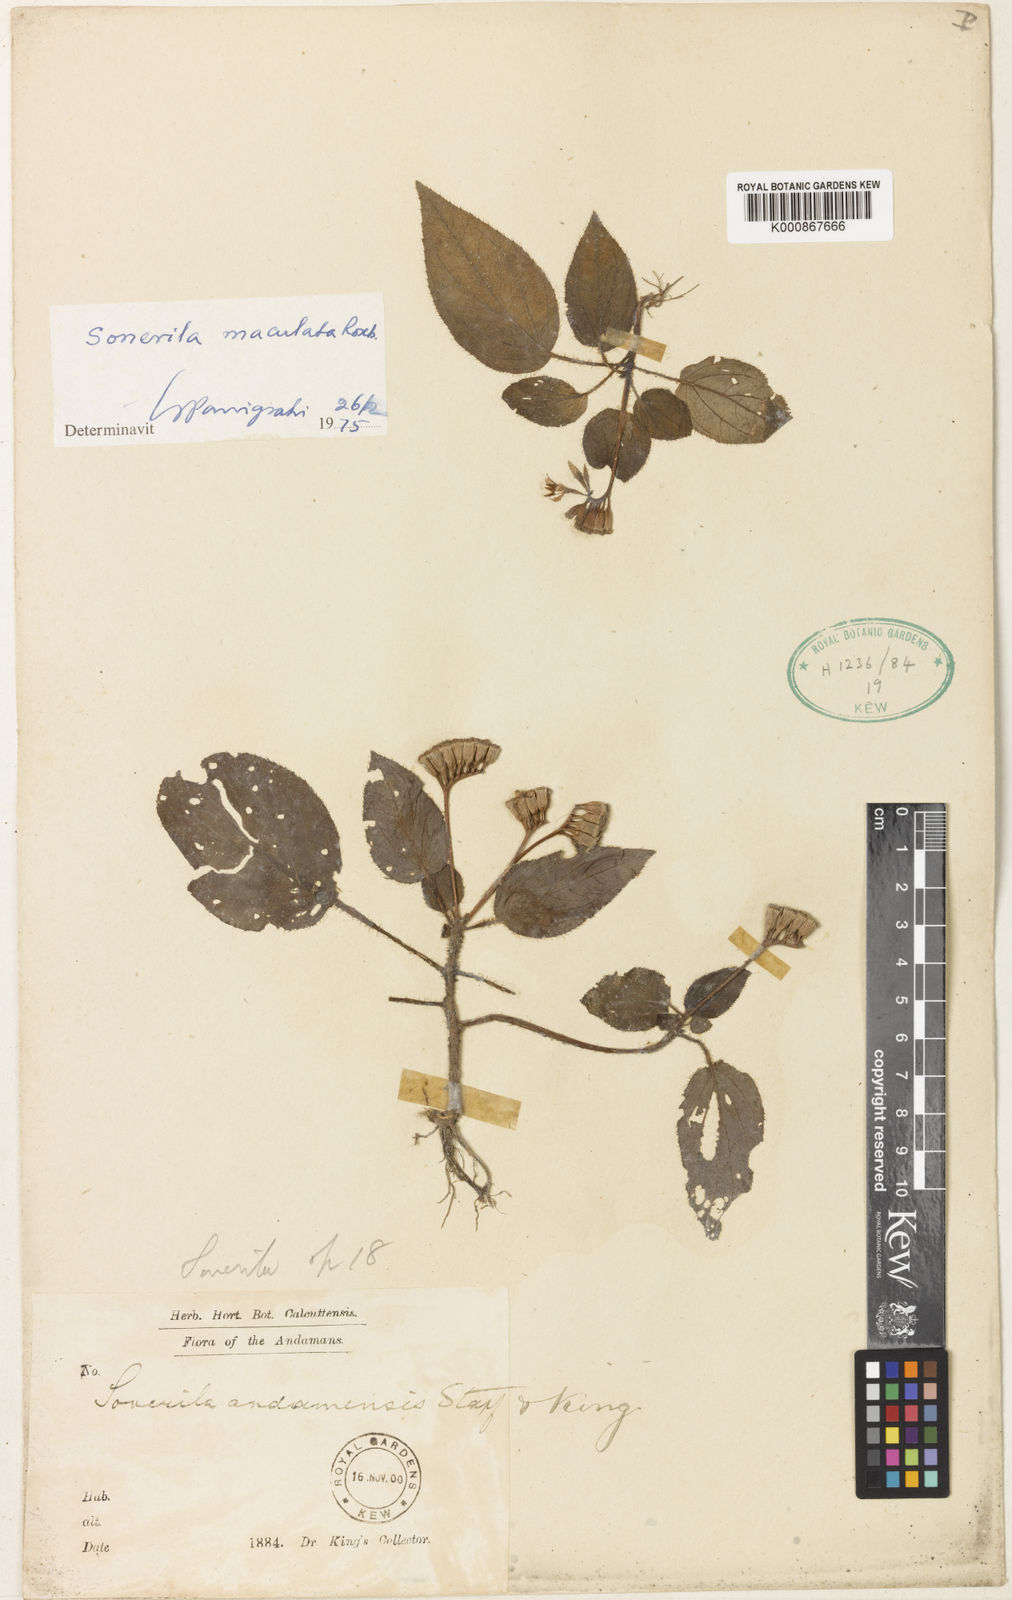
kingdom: Plantae
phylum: Tracheophyta
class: Magnoliopsida
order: Myrtales
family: Melastomataceae
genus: Sonerila
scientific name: Sonerila maculata
